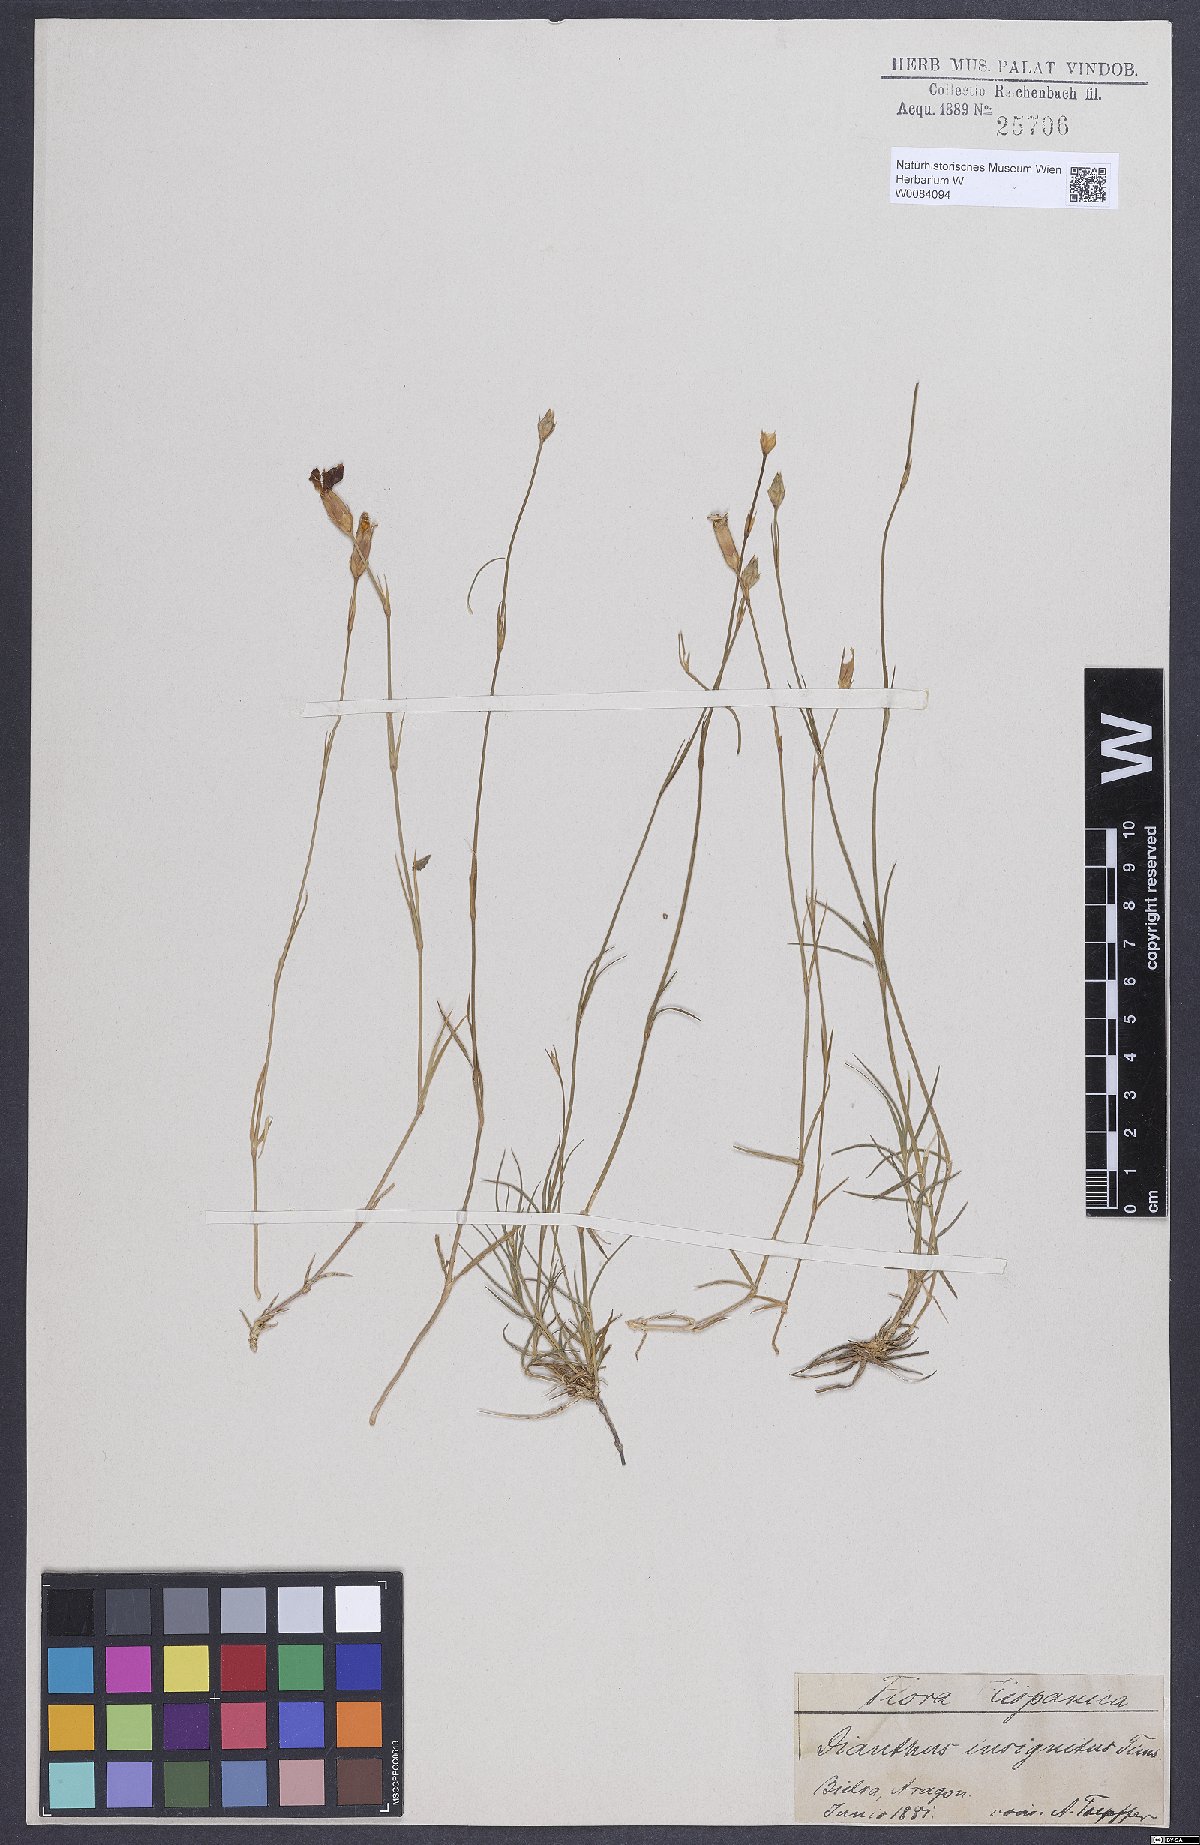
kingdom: Plantae
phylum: Tracheophyta
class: Magnoliopsida
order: Caryophyllales
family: Caryophyllaceae
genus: Dianthus
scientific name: Dianthus pungens
